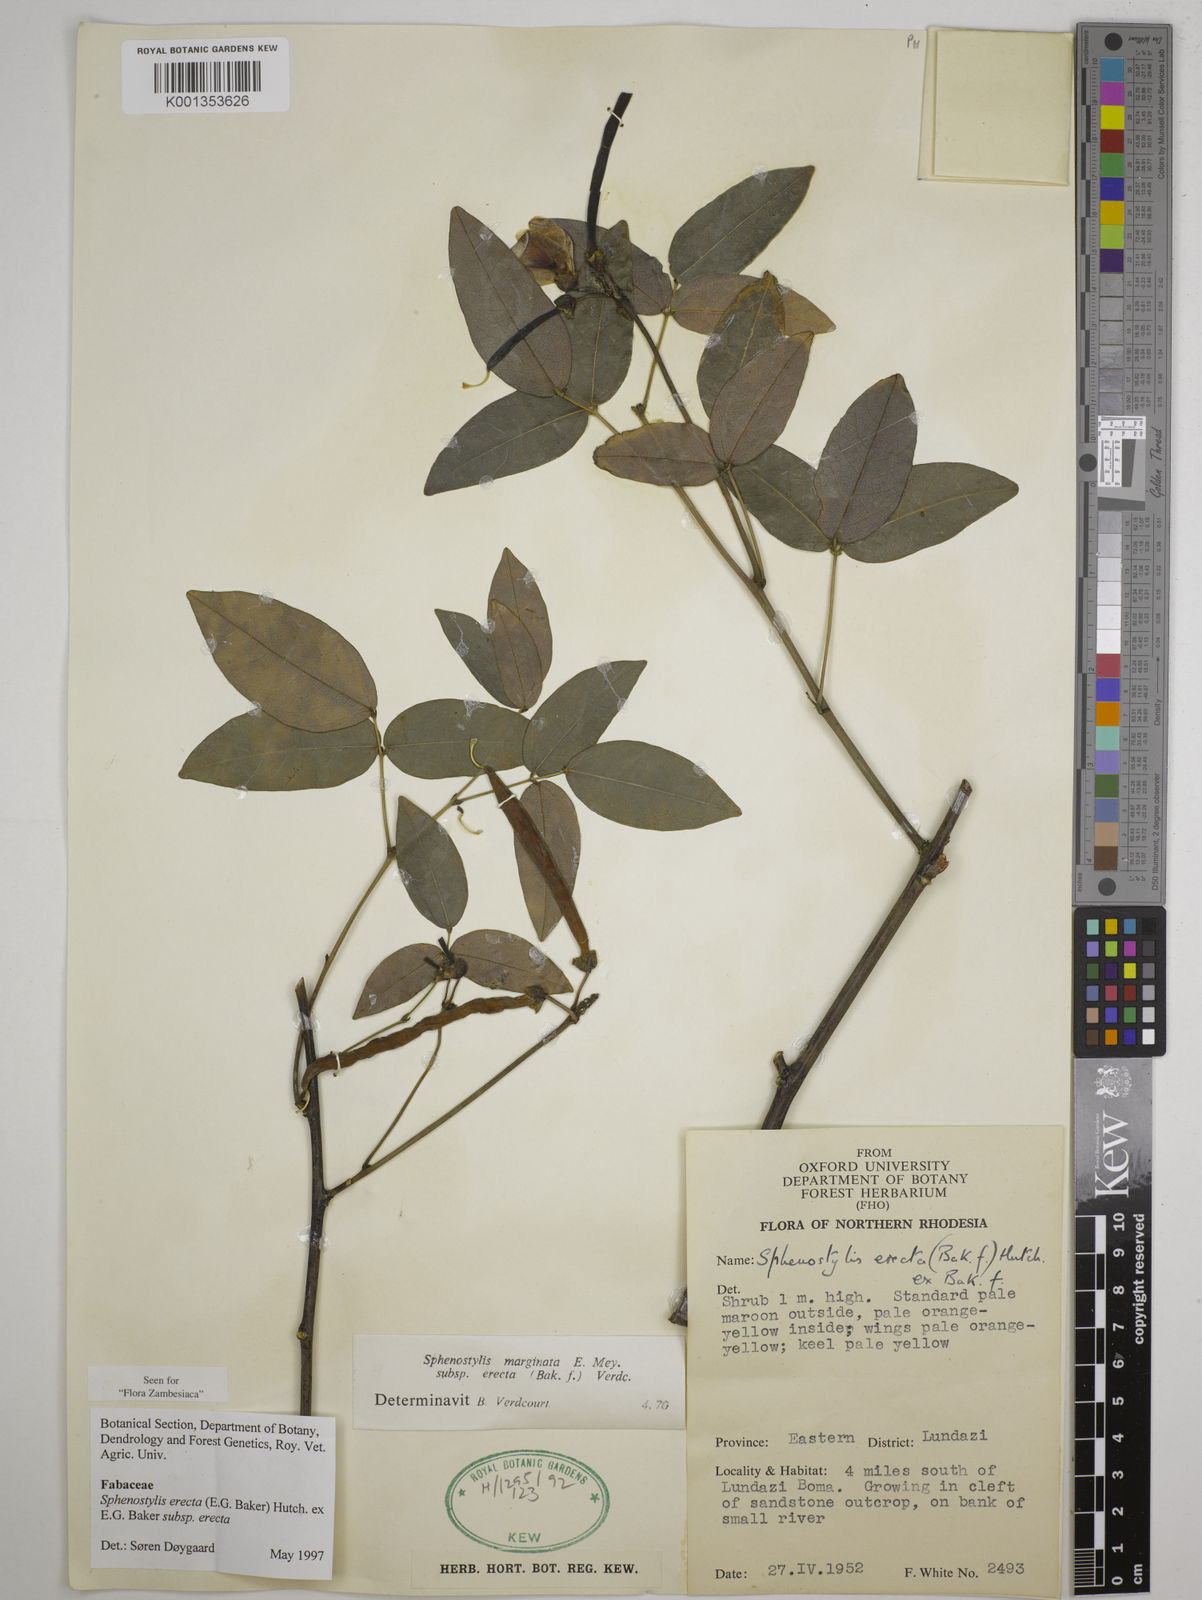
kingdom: Plantae
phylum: Tracheophyta
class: Magnoliopsida
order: Fabales
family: Fabaceae
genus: Sphenostylis
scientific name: Sphenostylis erecta
